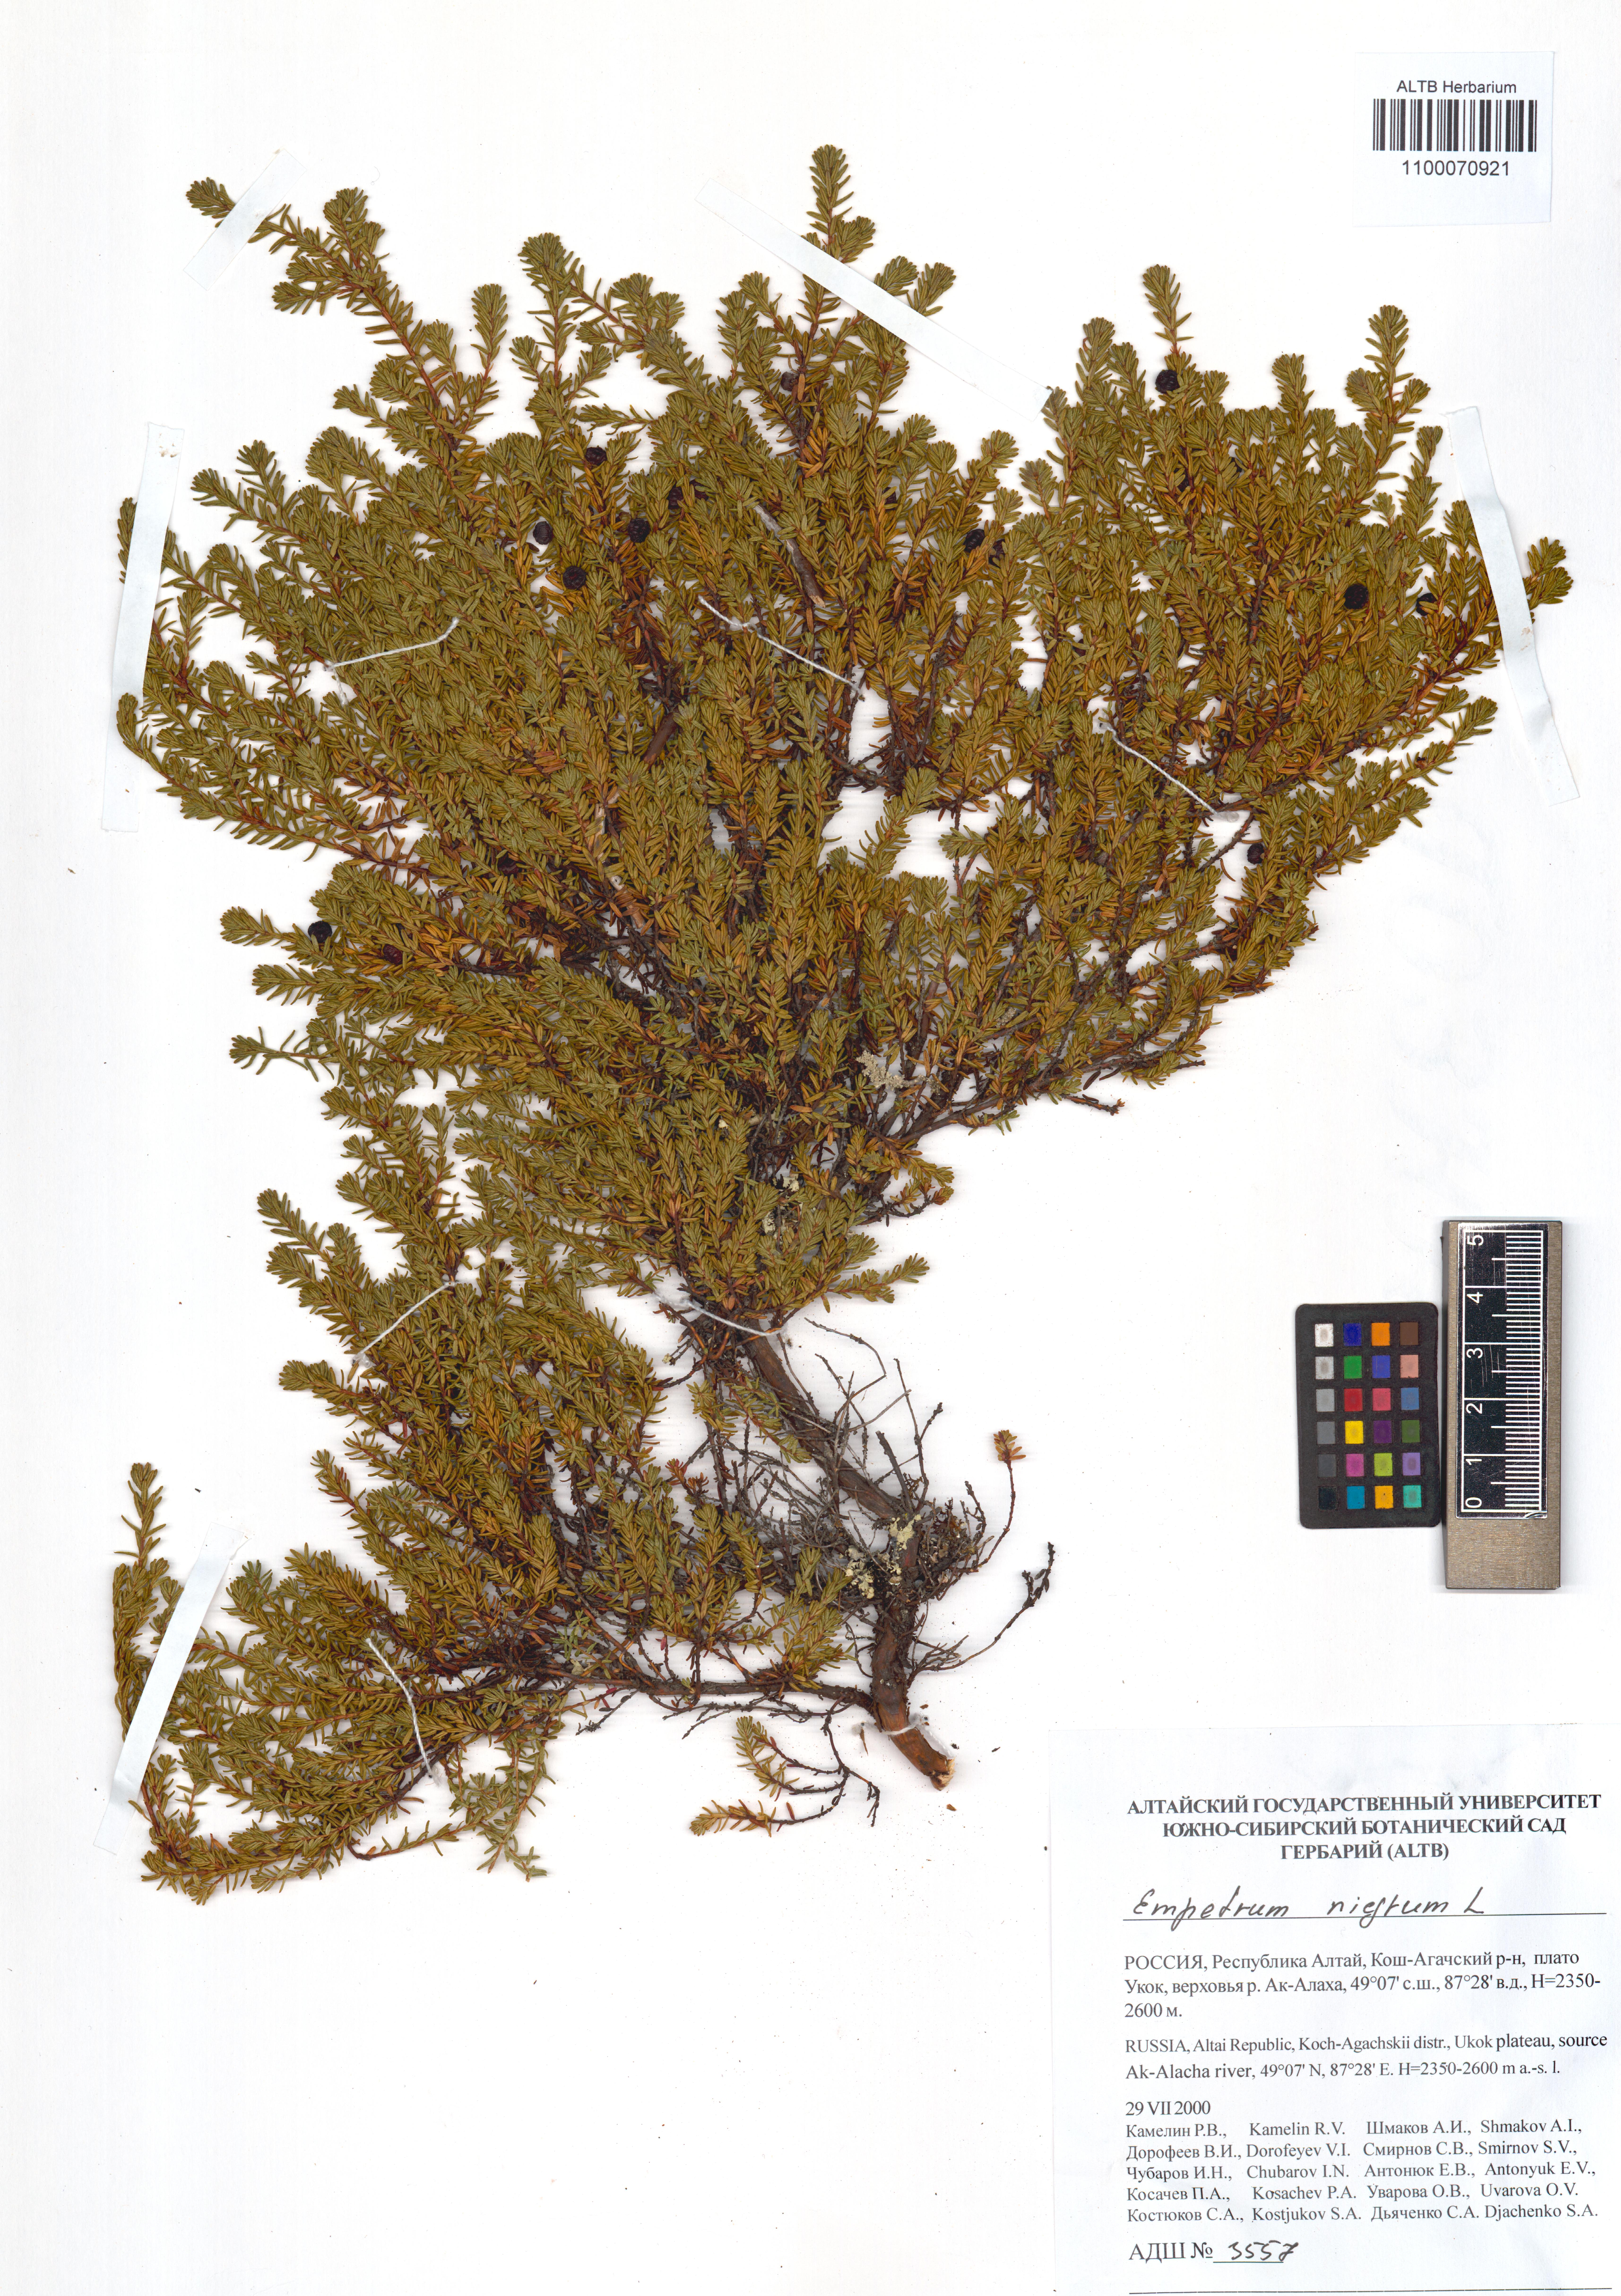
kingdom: Plantae
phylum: Tracheophyta
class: Magnoliopsida
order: Ericales
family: Ericaceae
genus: Empetrum
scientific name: Empetrum nigrum
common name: Black crowberry
